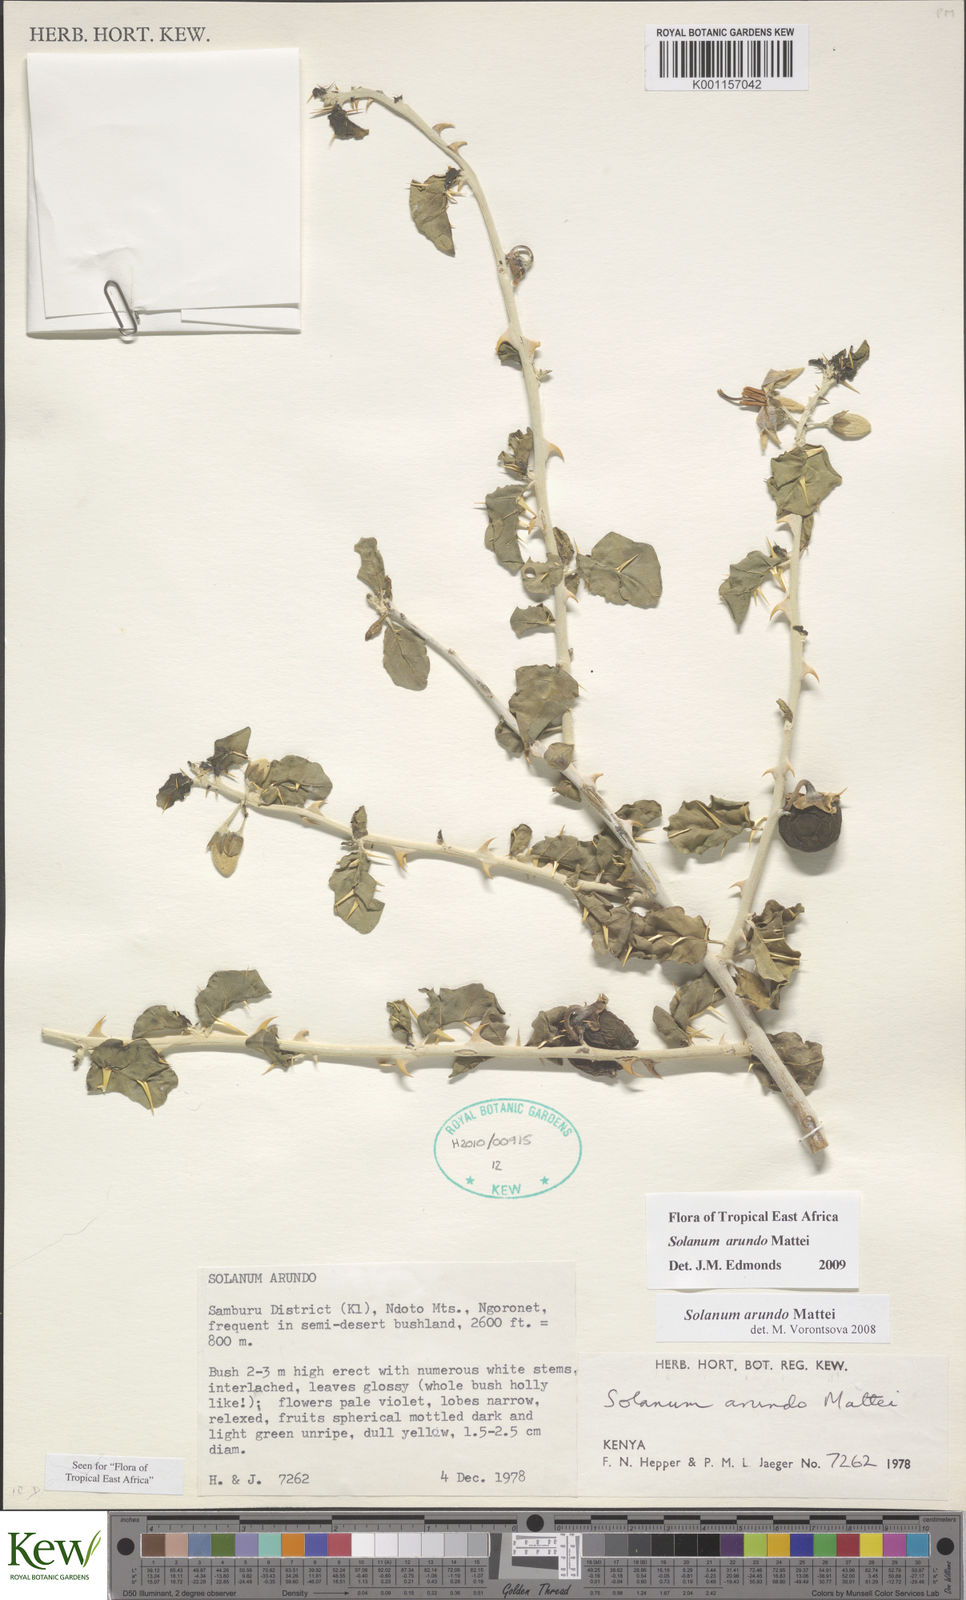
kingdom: Plantae
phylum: Tracheophyta
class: Magnoliopsida
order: Solanales
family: Solanaceae
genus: Solanum
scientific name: Solanum arundo
